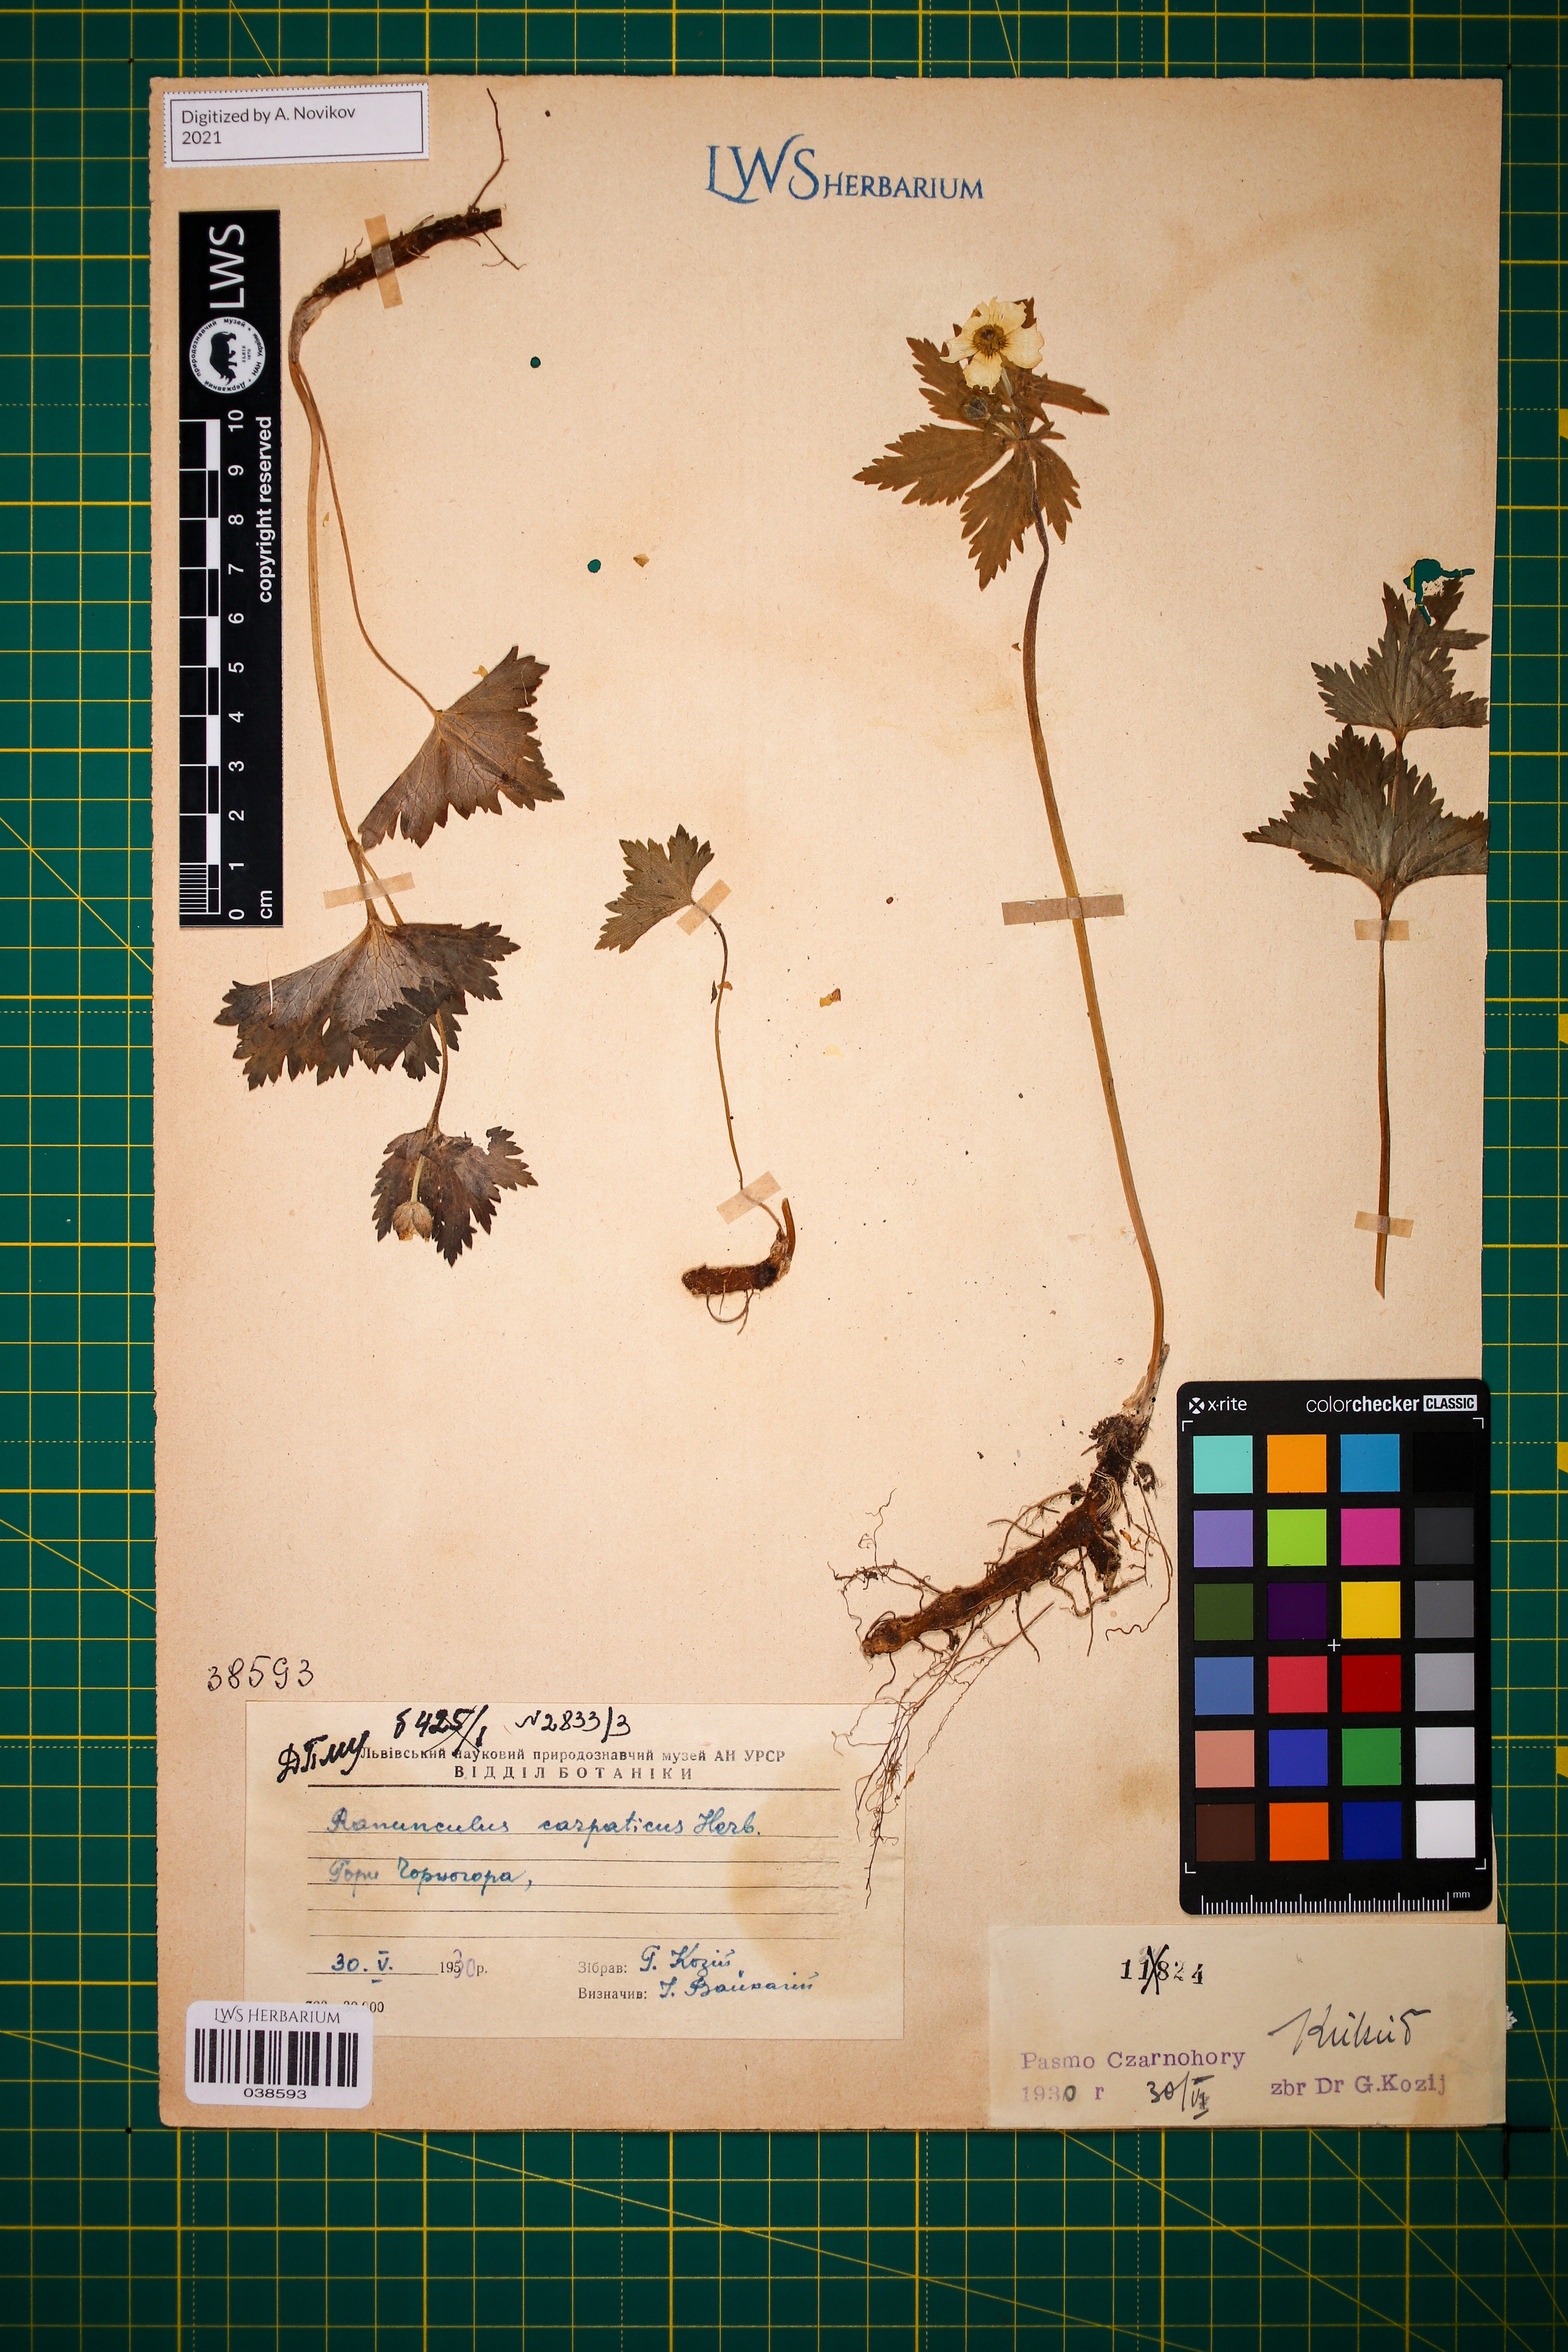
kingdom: Plantae
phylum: Tracheophyta
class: Magnoliopsida
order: Ranunculales
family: Ranunculaceae
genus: Ranunculus
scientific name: Ranunculus carpaticus
